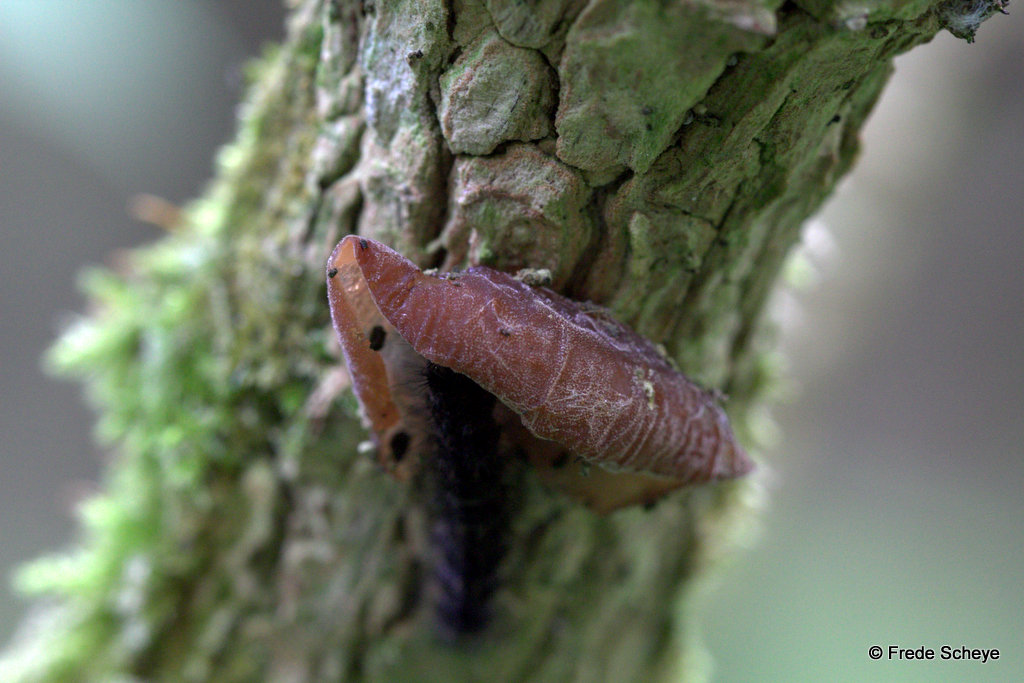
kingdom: Fungi
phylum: Basidiomycota
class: Agaricomycetes
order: Auriculariales
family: Auriculariaceae
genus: Auricularia
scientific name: Auricularia auricula-judae
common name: almindelig judasøre
